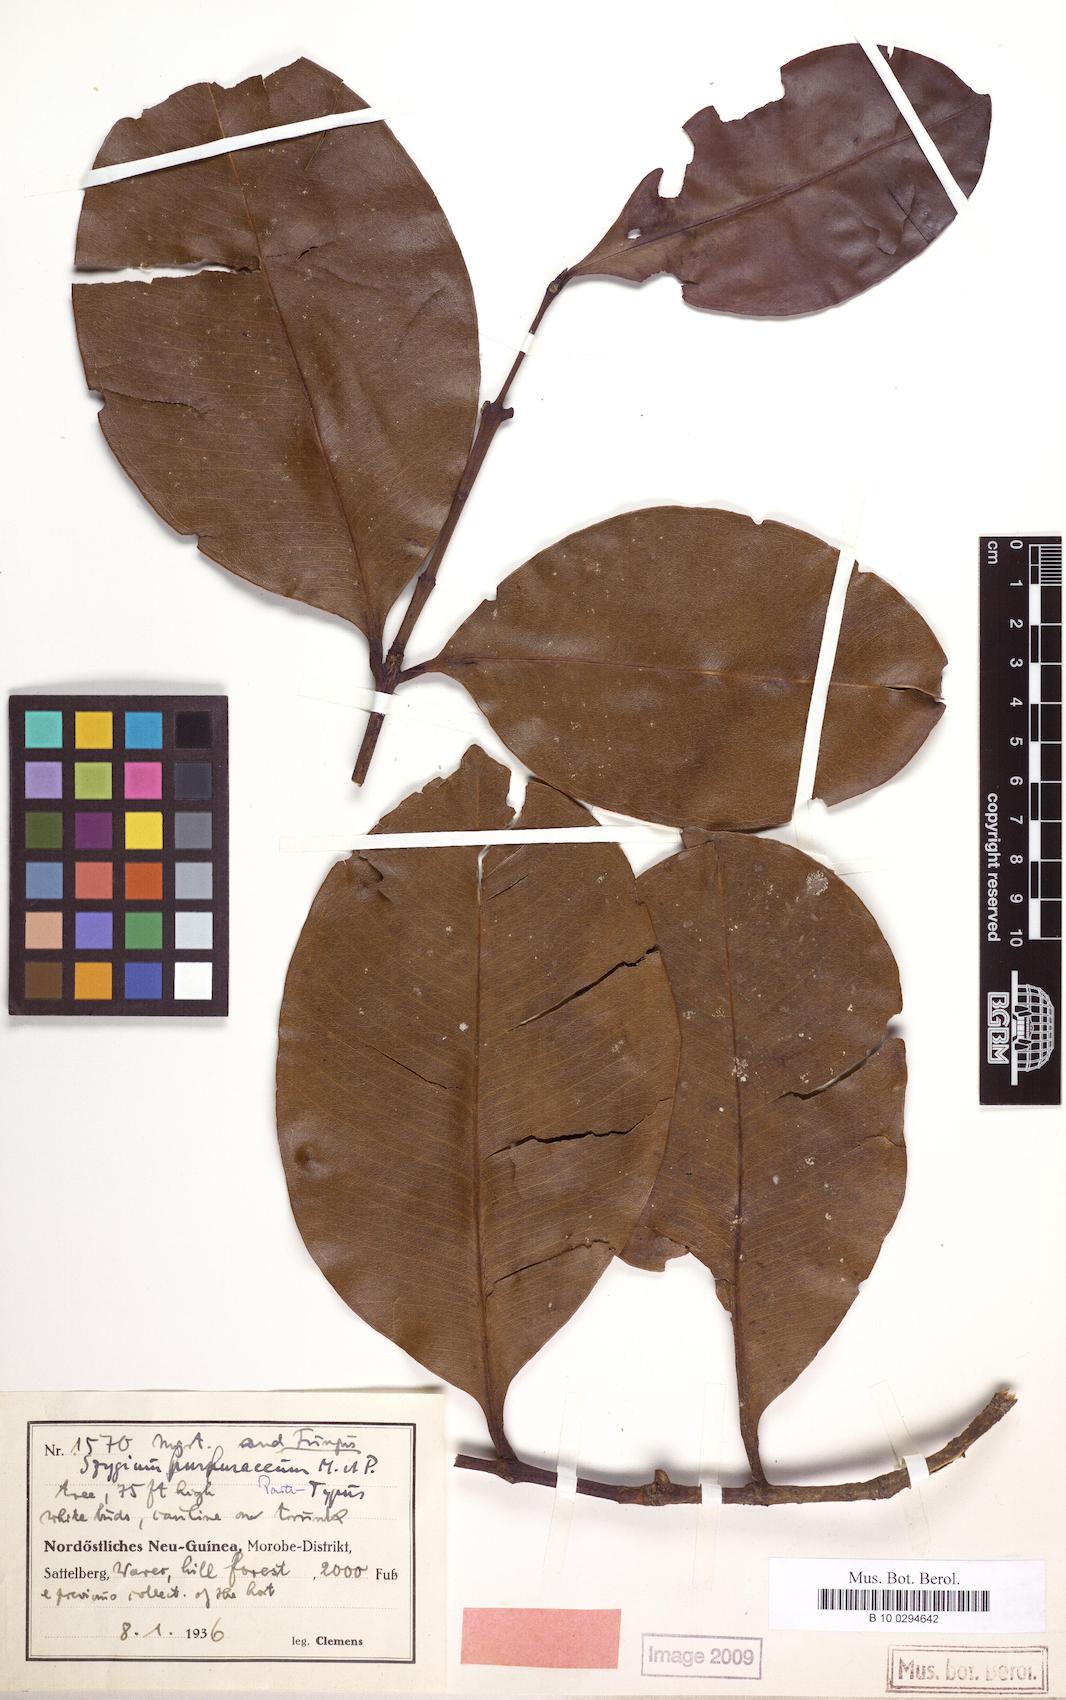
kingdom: Plantae
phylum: Tracheophyta
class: Magnoliopsida
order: Myrtales
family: Myrtaceae
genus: Syzygium
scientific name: Syzygium furfuraceum
